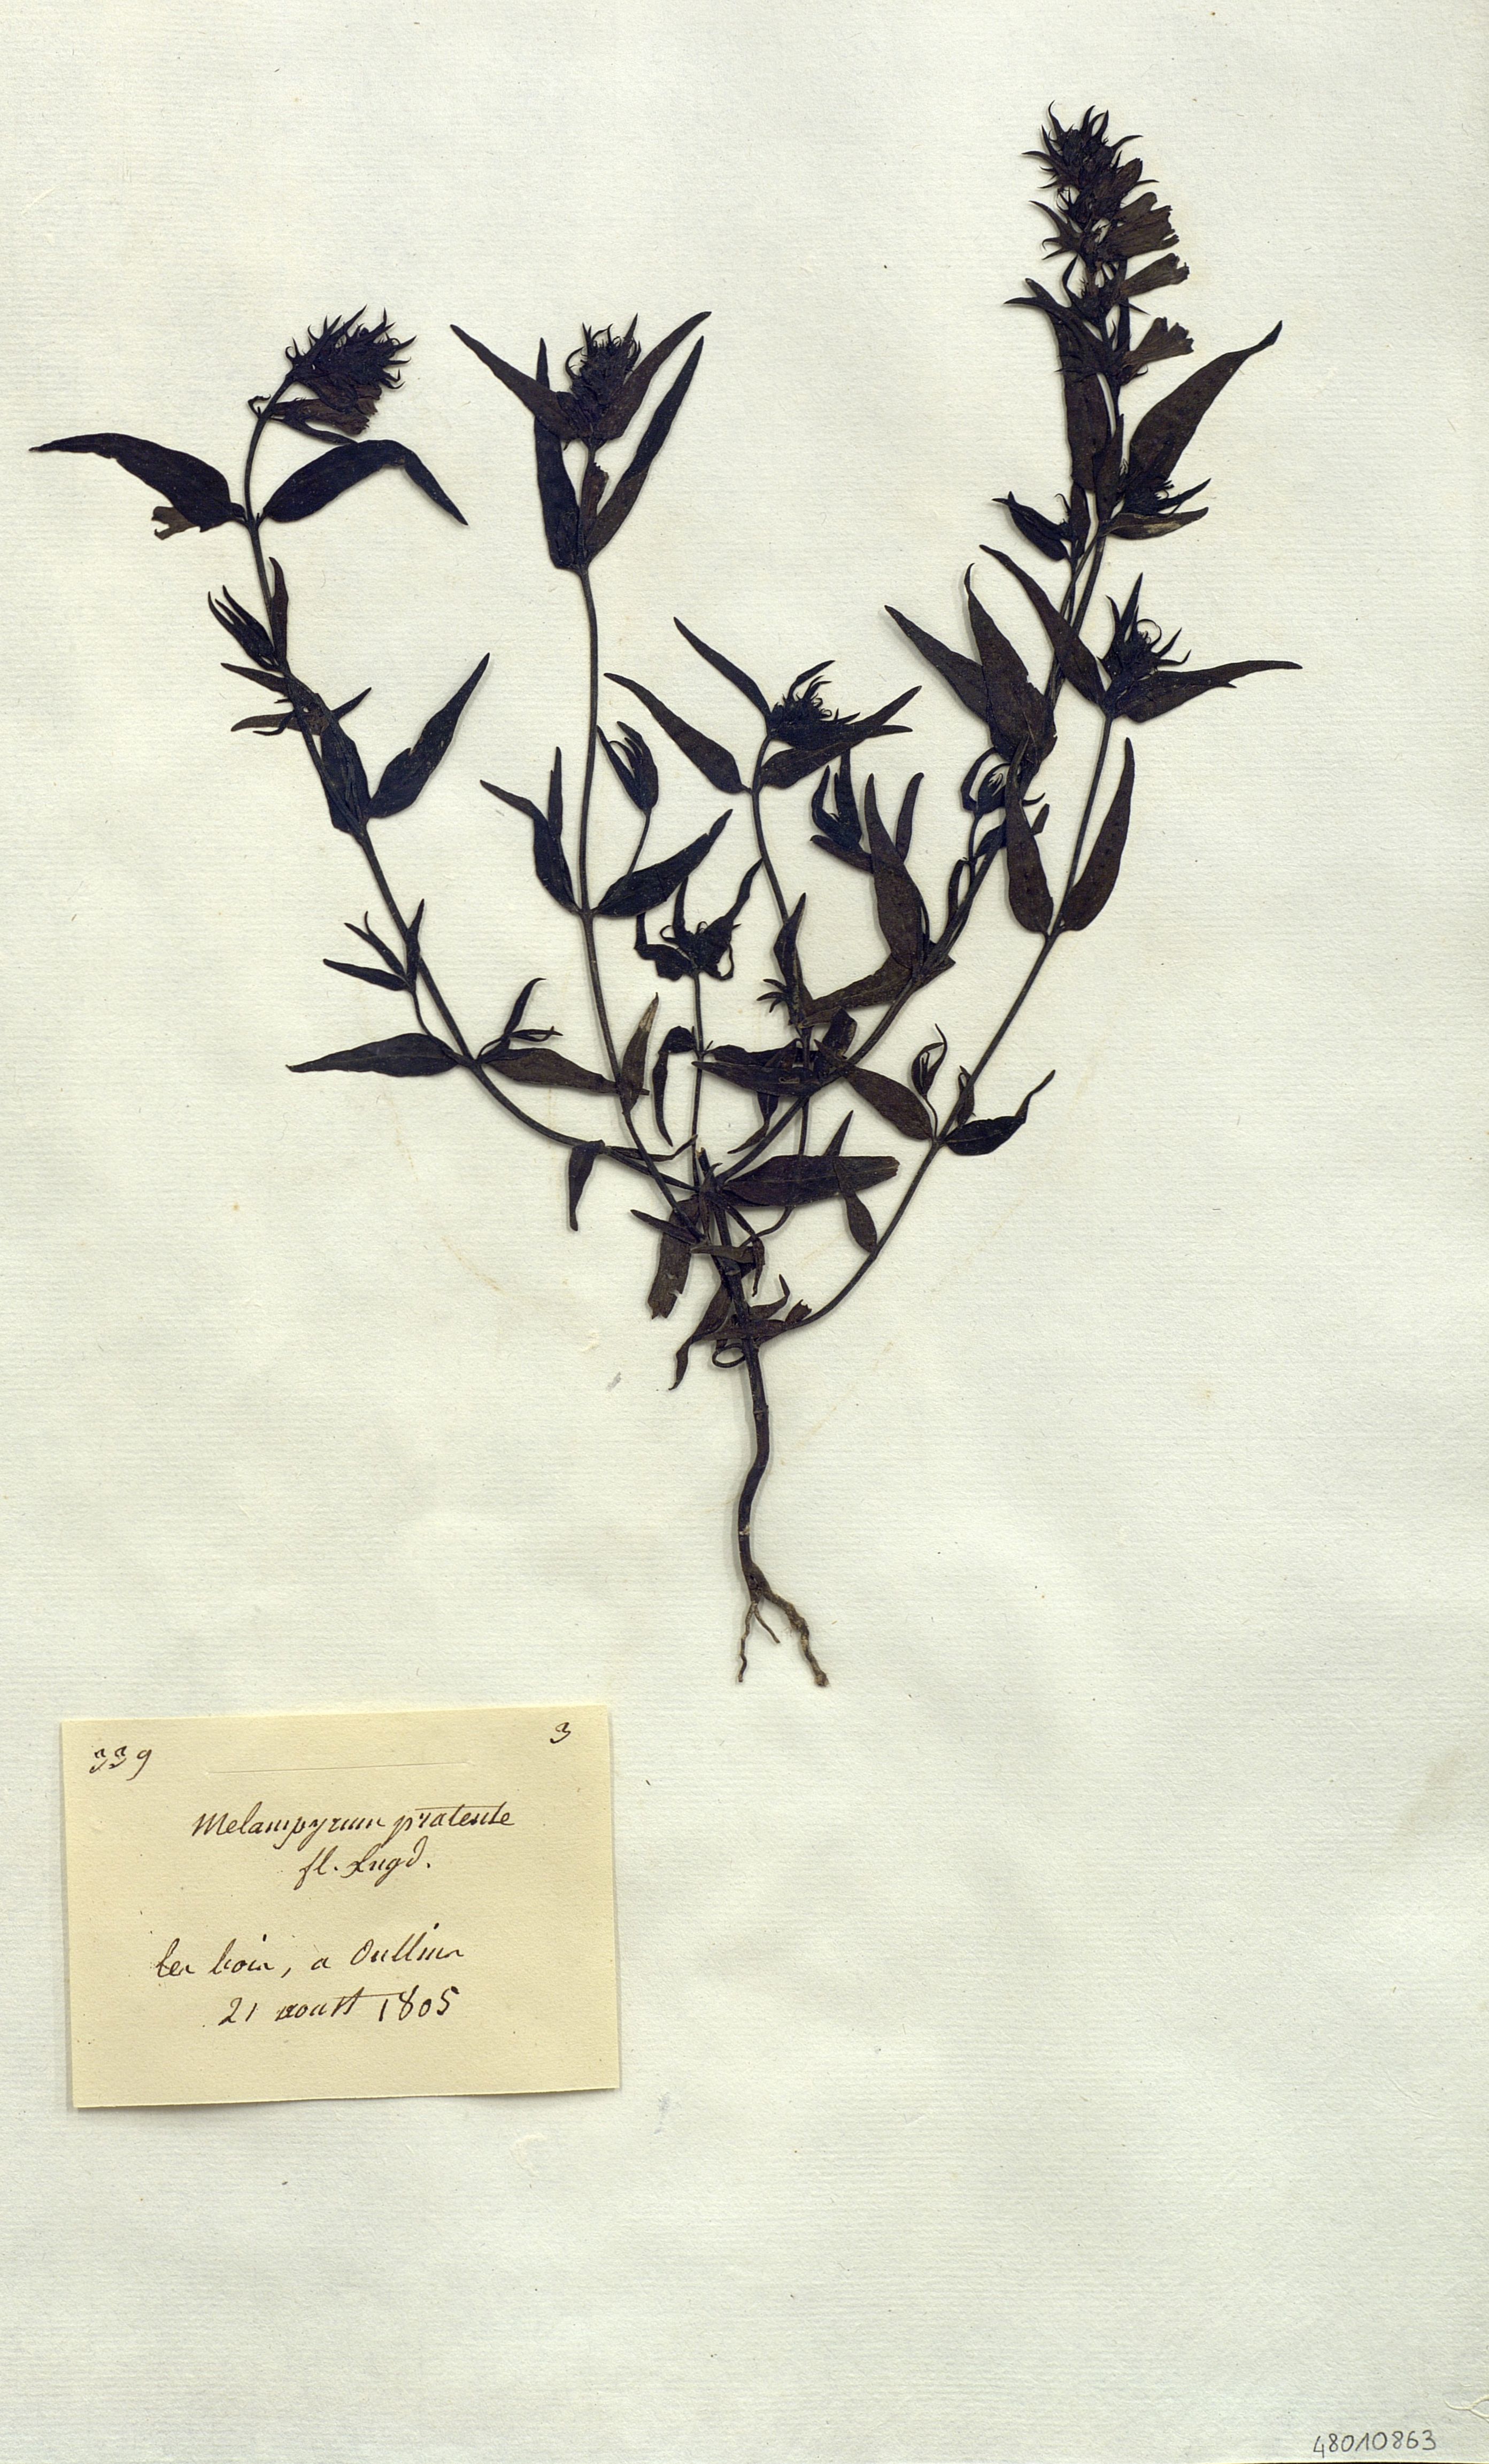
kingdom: Plantae
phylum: Tracheophyta
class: Magnoliopsida
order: Lamiales
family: Orobanchaceae
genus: Melampyrum
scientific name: Melampyrum pratense
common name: Common cow-wheat
